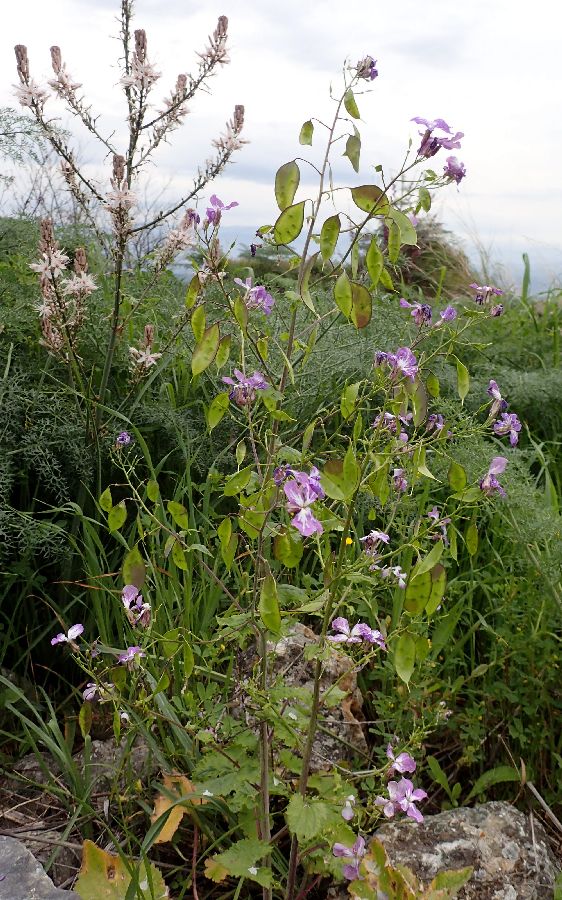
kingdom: Plantae
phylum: Tracheophyta
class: Magnoliopsida
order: Brassicales
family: Brassicaceae
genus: Lunaria
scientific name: Lunaria annua
